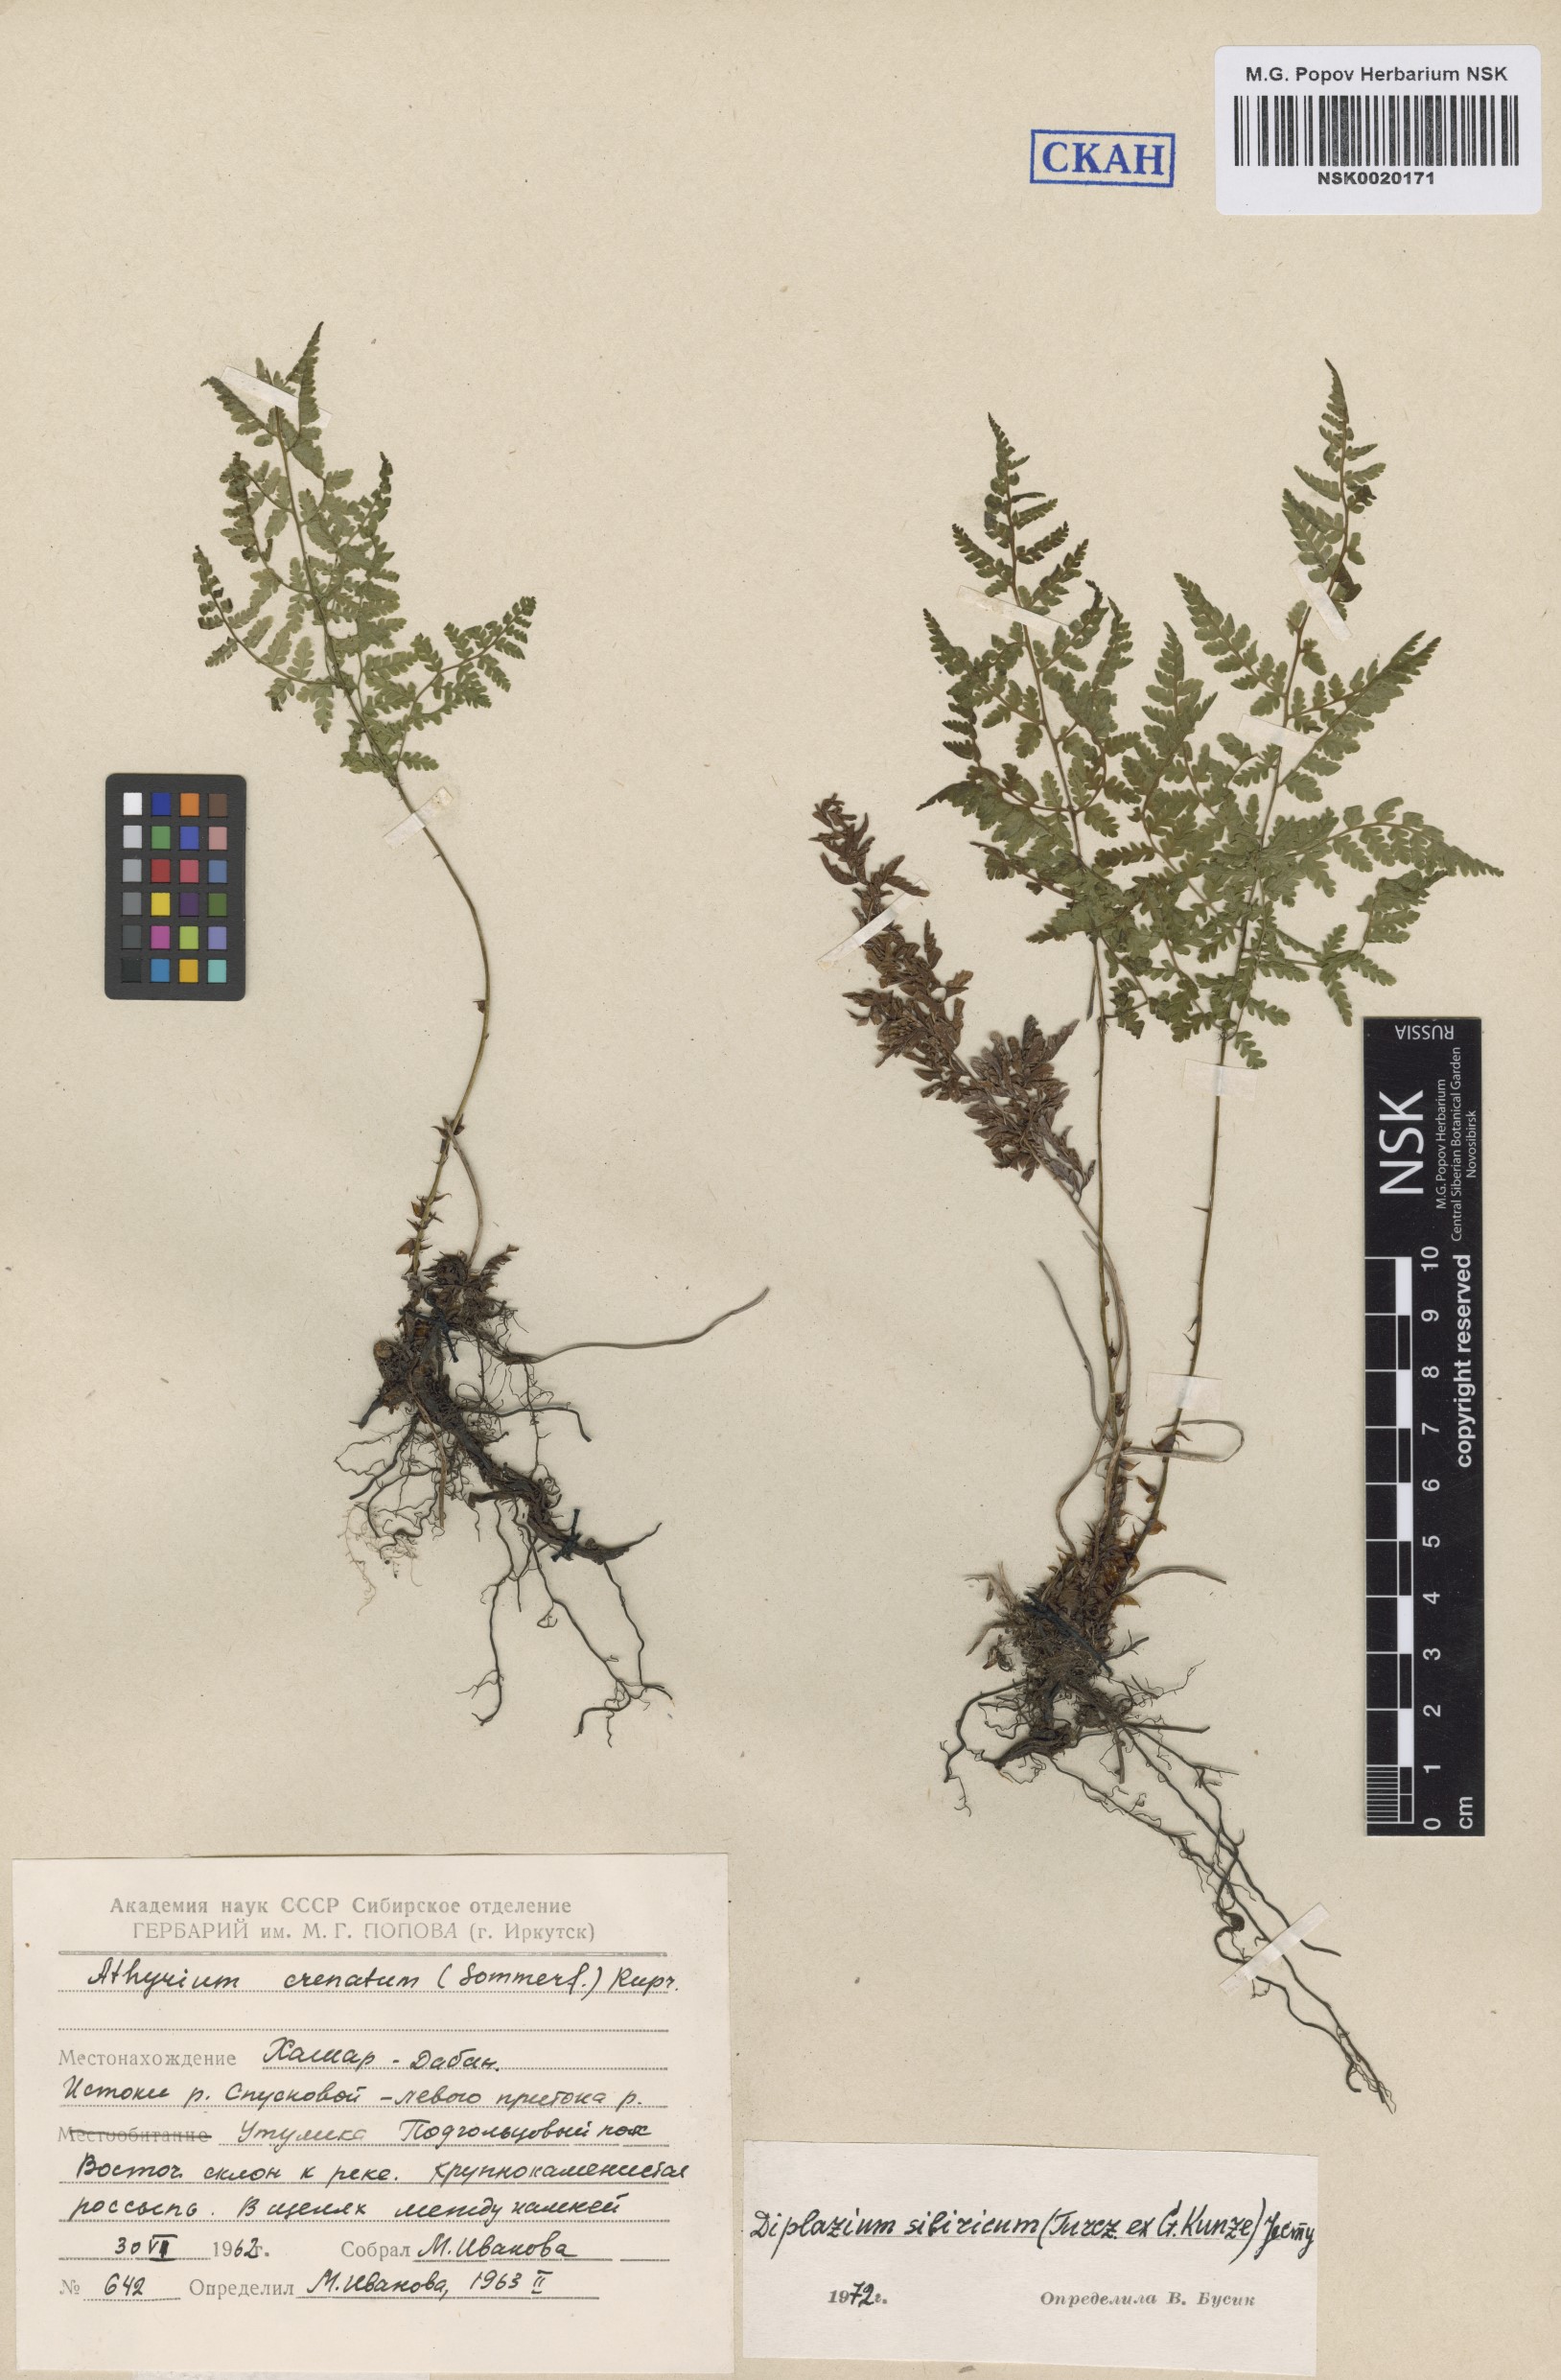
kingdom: Plantae
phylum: Tracheophyta
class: Polypodiopsida
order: Polypodiales
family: Athyriaceae
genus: Diplazium
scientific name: Diplazium sibiricum
